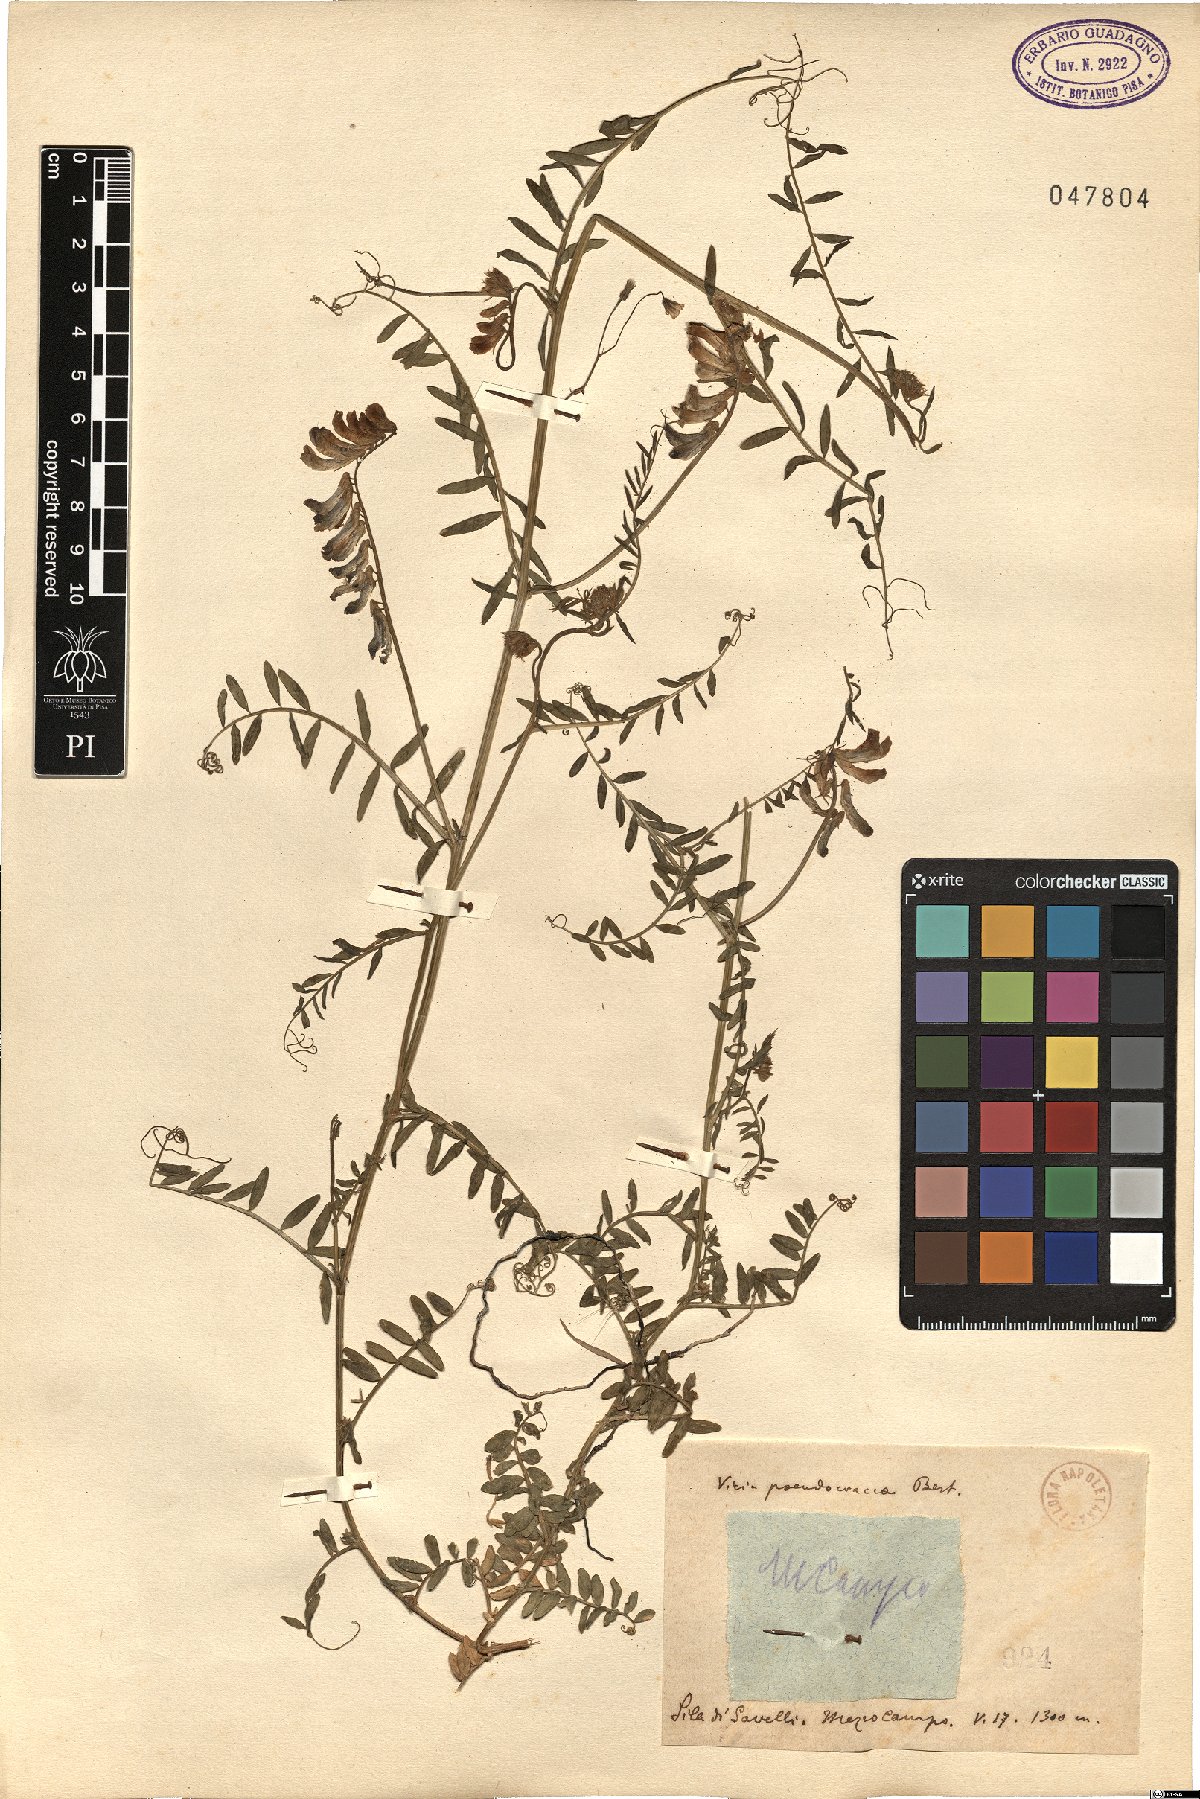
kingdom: Plantae
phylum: Tracheophyta
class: Magnoliopsida
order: Fabales
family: Fabaceae
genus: Vicia
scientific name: Vicia villosa
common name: Fodder vetch
